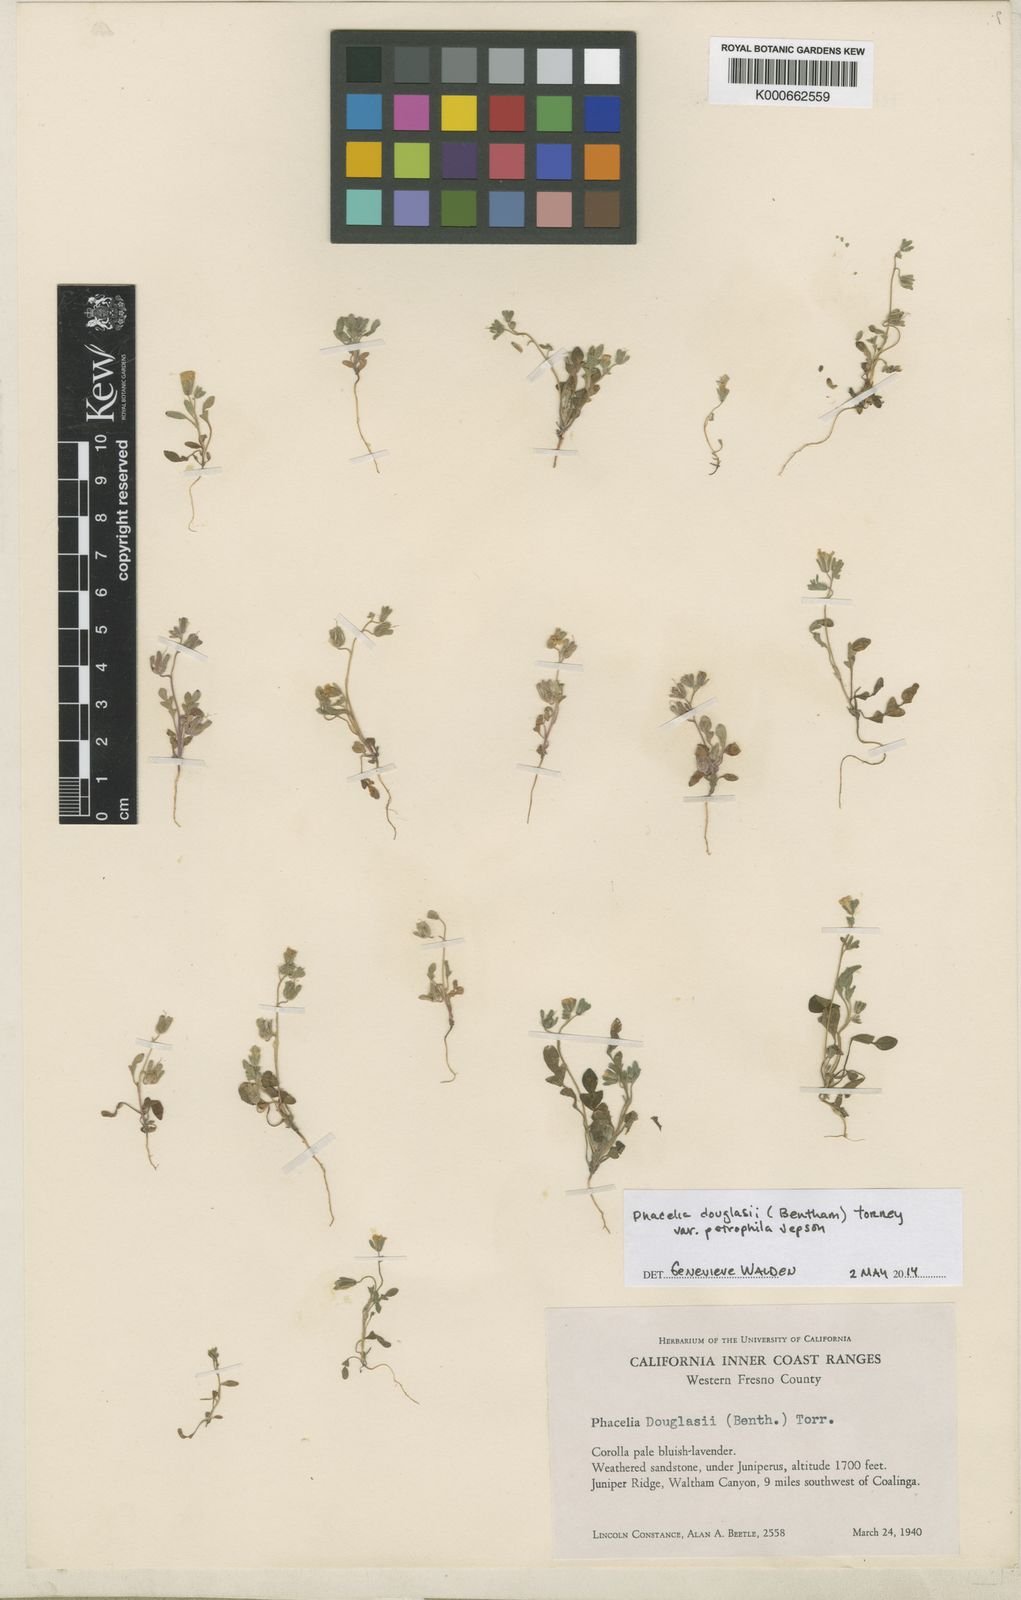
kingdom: Plantae
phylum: Tracheophyta
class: Magnoliopsida
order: Boraginales
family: Hydrophyllaceae
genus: Phacelia
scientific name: Phacelia douglasii
